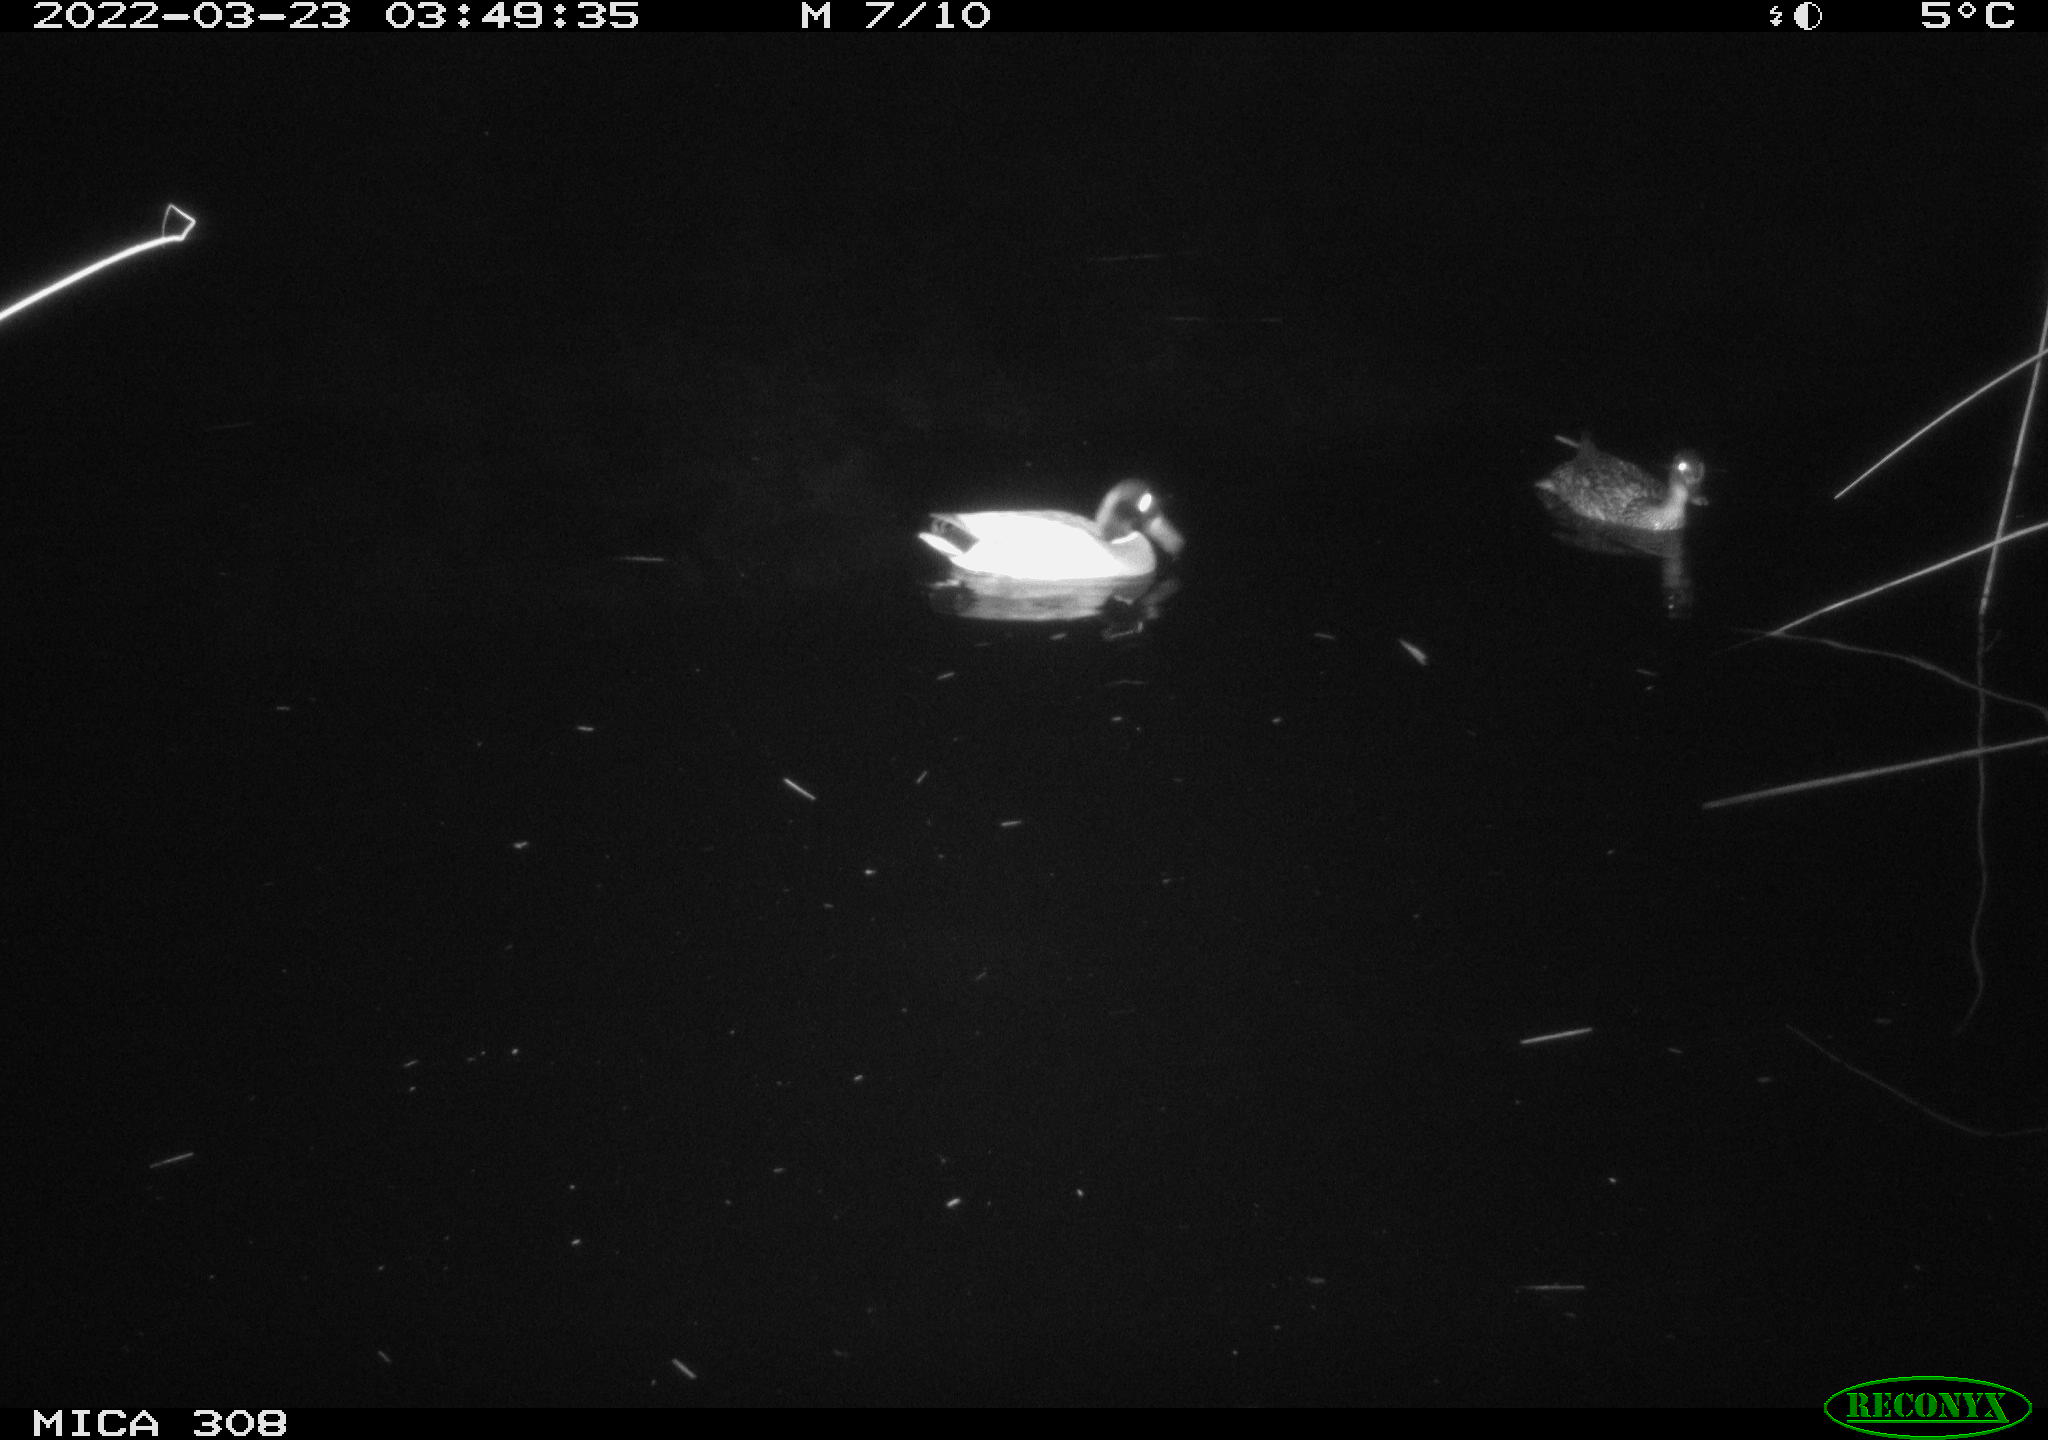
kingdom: Animalia
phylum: Chordata
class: Aves
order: Anseriformes
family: Anatidae
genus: Anas
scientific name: Anas platyrhynchos
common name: Mallard
